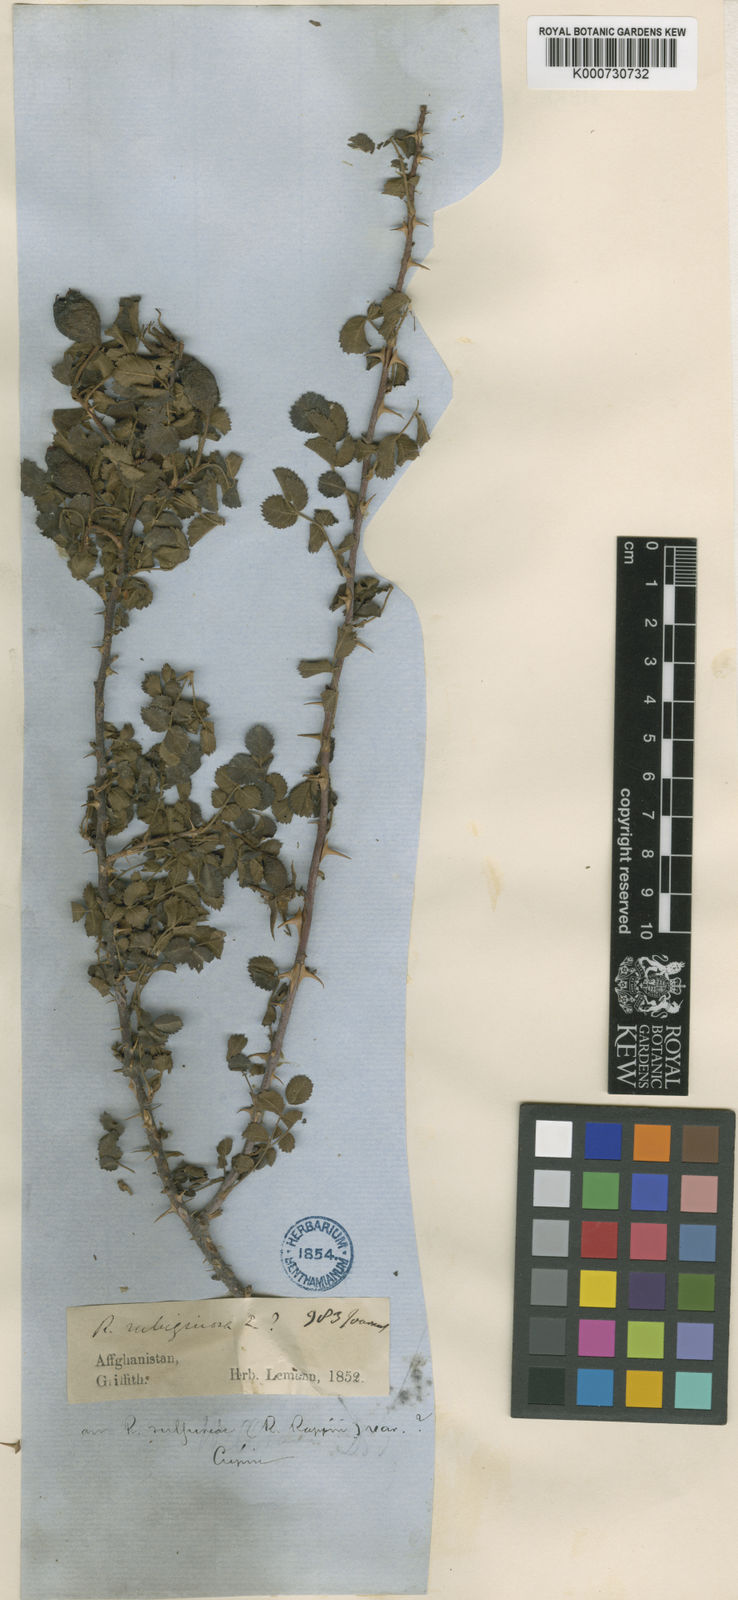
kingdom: Plantae
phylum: Tracheophyta
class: Magnoliopsida
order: Rosales
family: Rosaceae
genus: Rosa
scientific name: Rosa beggeriana
